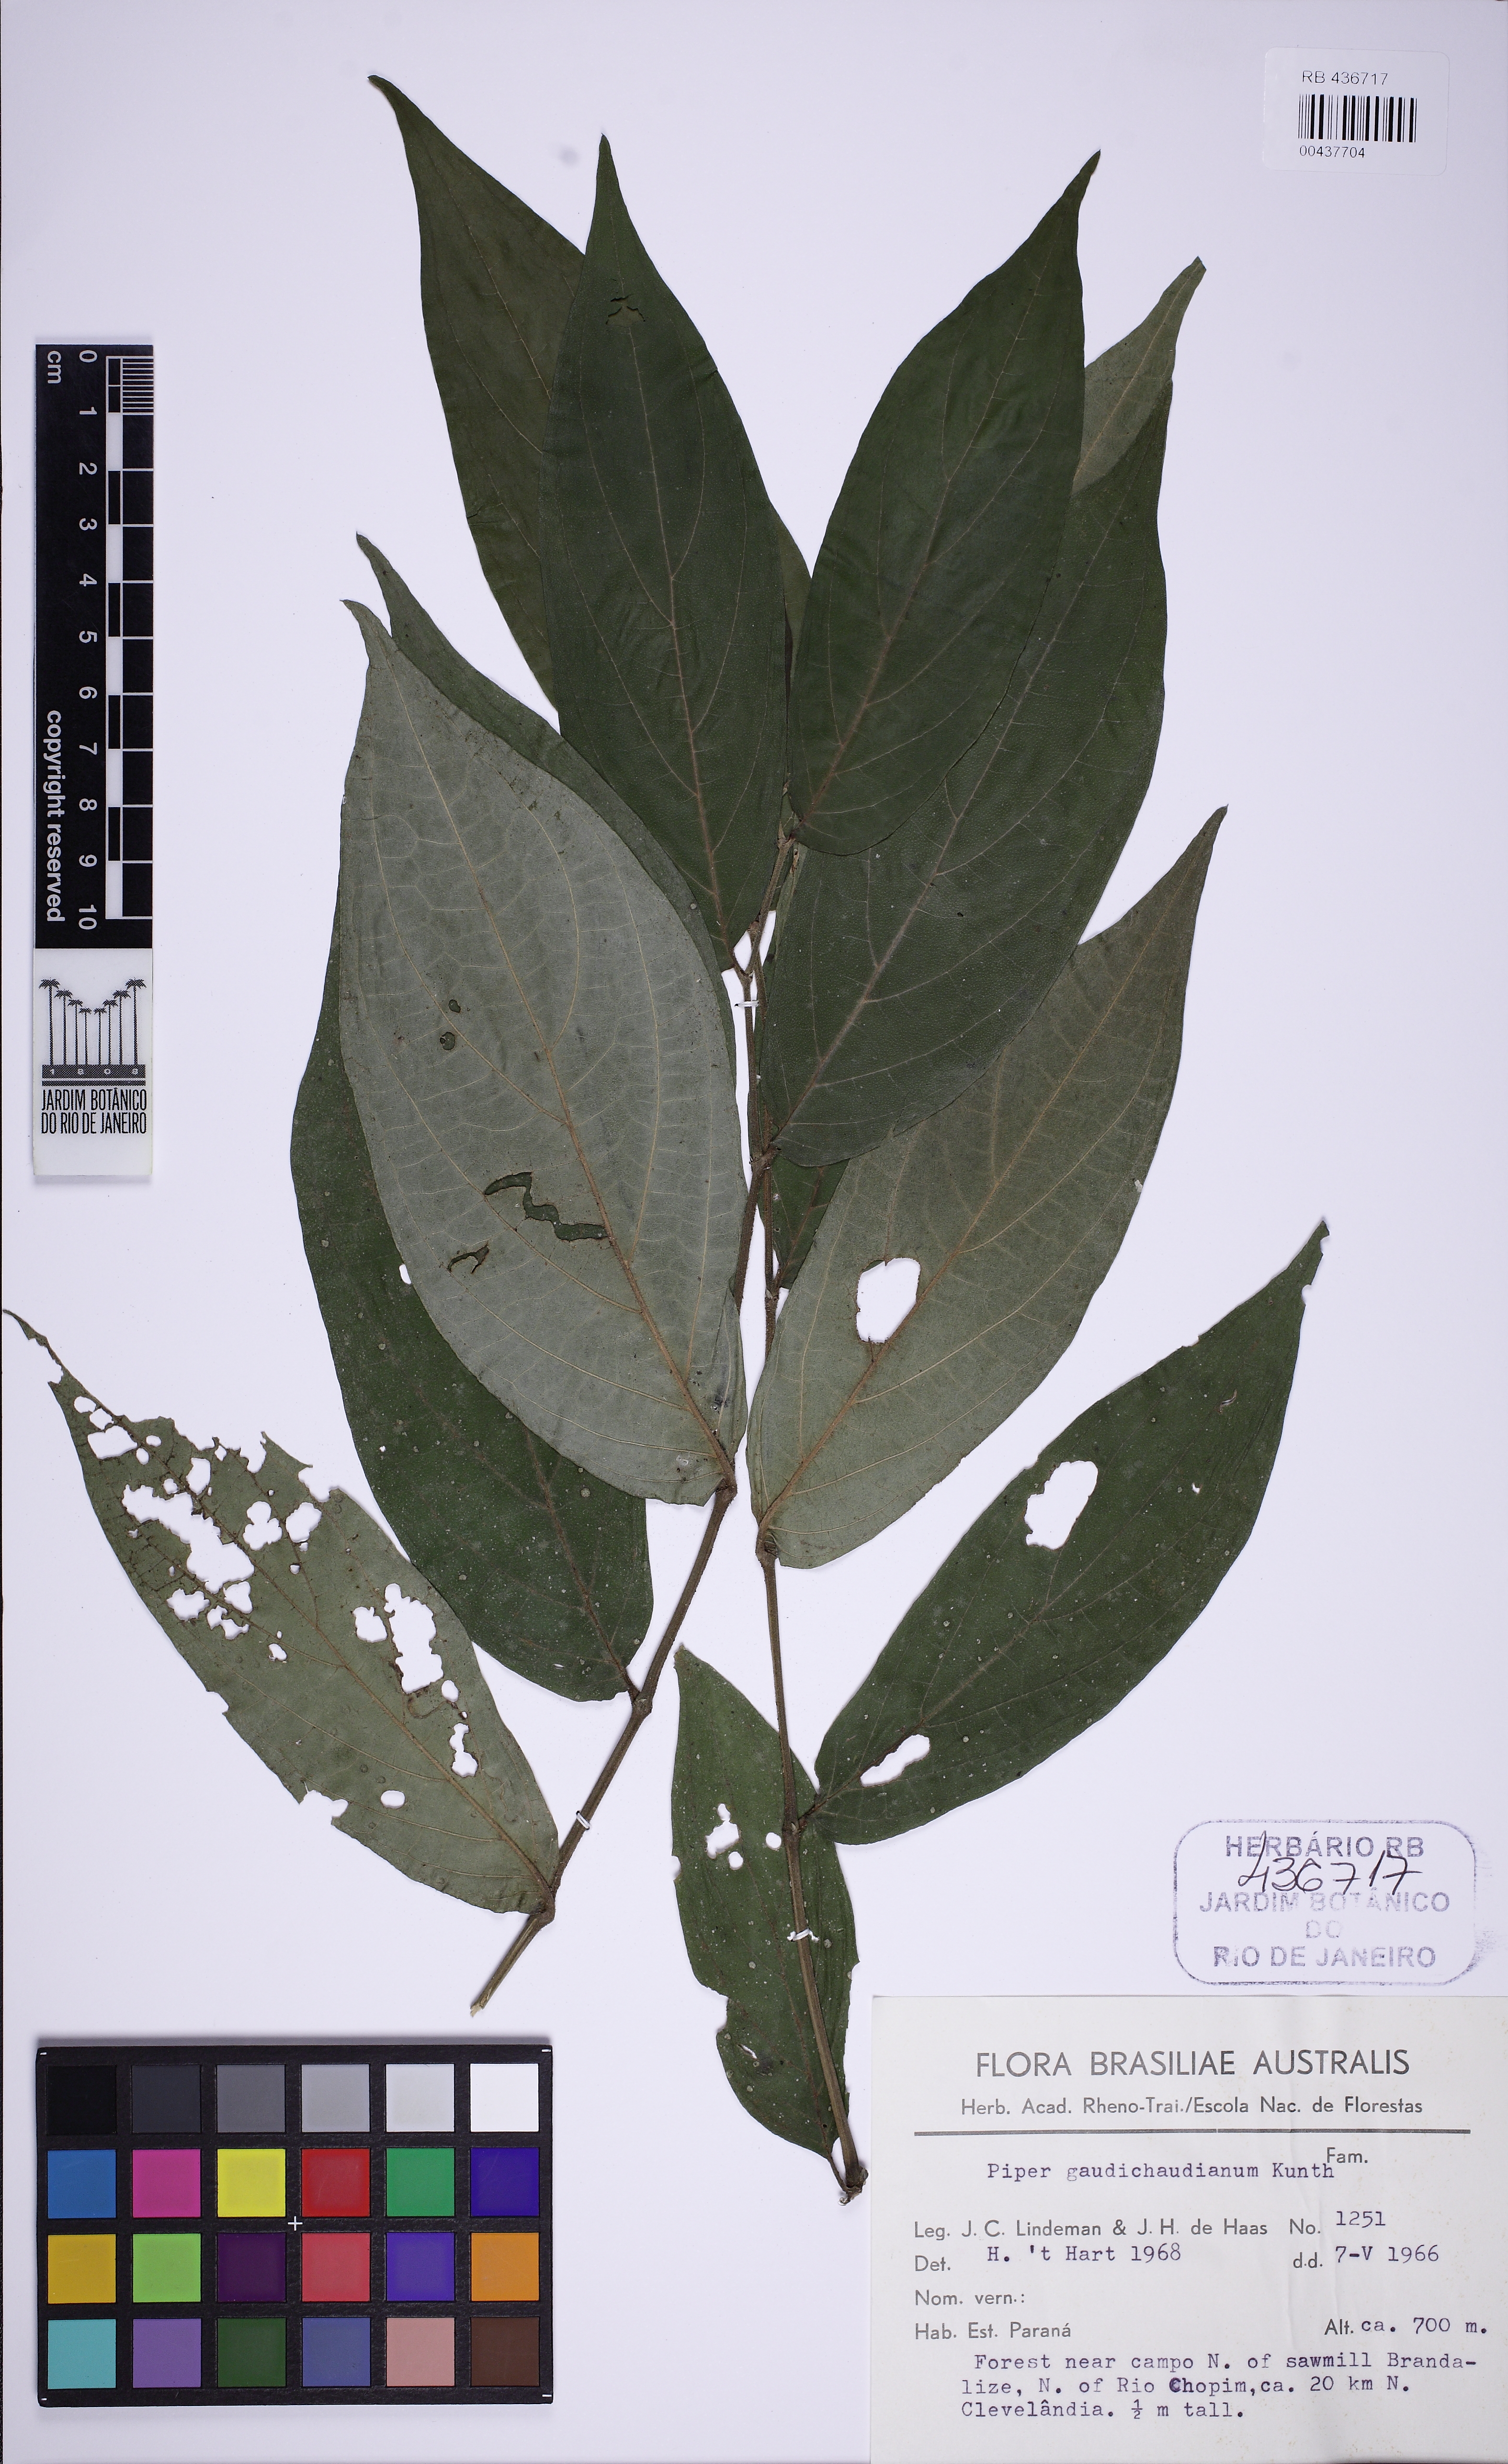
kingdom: Plantae
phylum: Tracheophyta
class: Magnoliopsida
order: Piperales
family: Piperaceae
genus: Piper
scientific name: Piper gaudichaudianum
